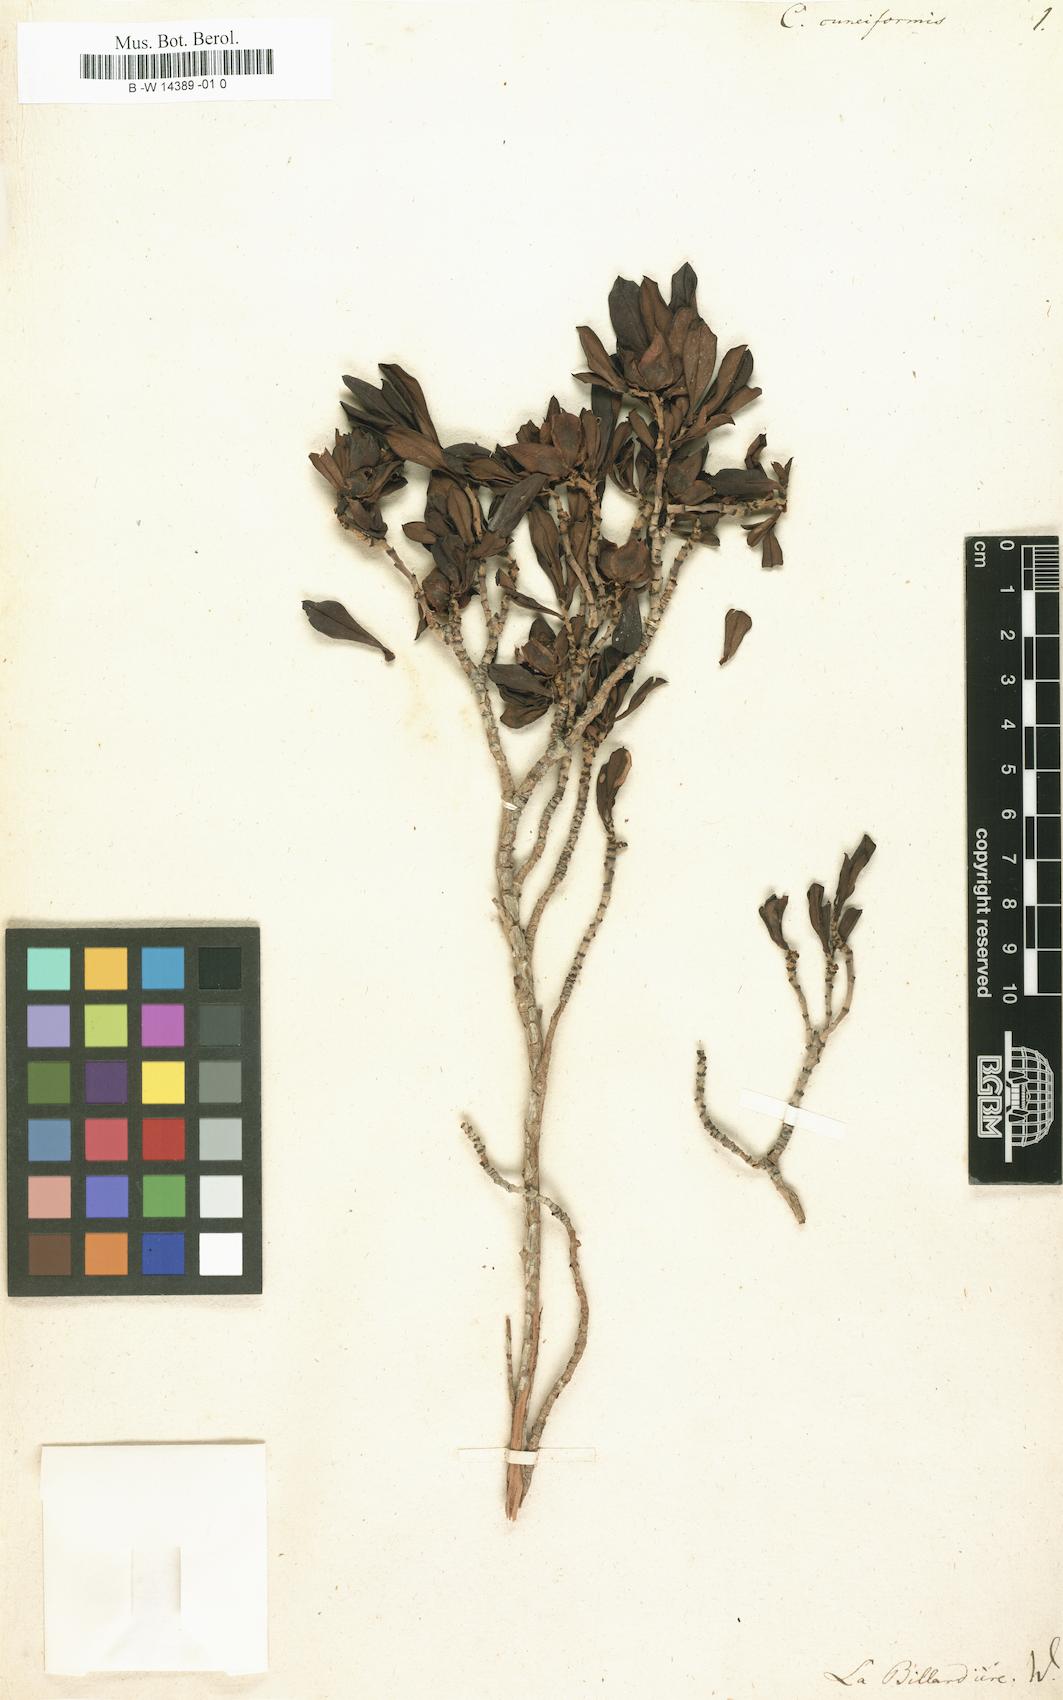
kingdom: Plantae
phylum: Tracheophyta
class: Magnoliopsida
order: Dilleniales
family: Dilleniaceae
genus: Hibbertia
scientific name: Hibbertia cuneiformis
